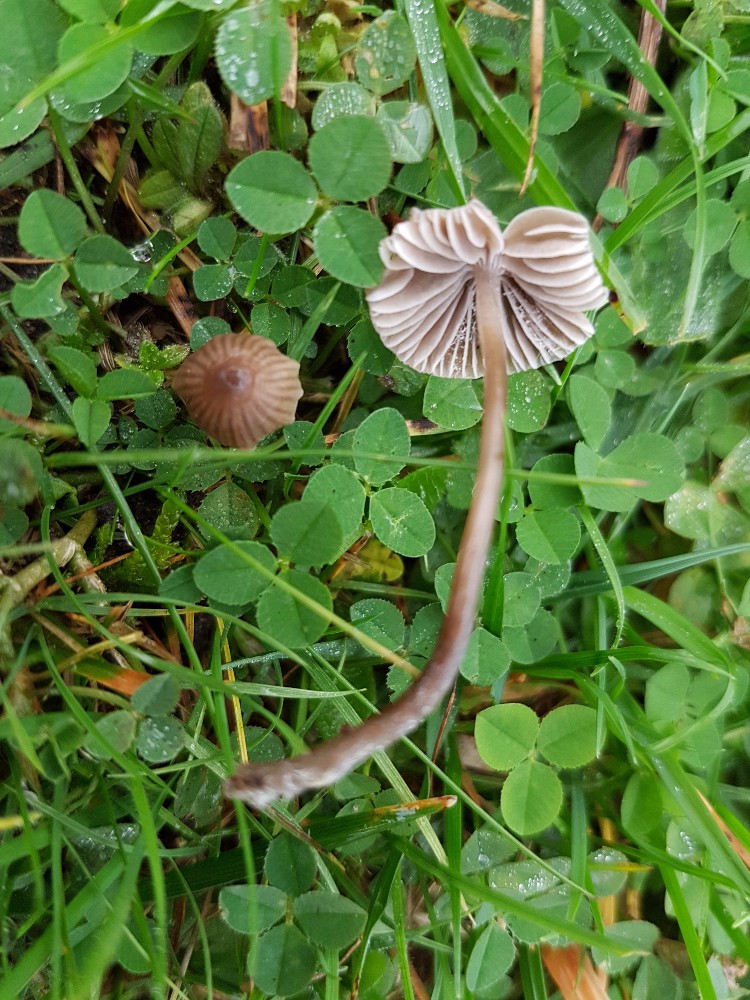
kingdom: Fungi
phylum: Basidiomycota
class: Agaricomycetes
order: Agaricales
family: Mycenaceae
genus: Mycena
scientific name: Mycena leptocephala
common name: klor-huesvamp
